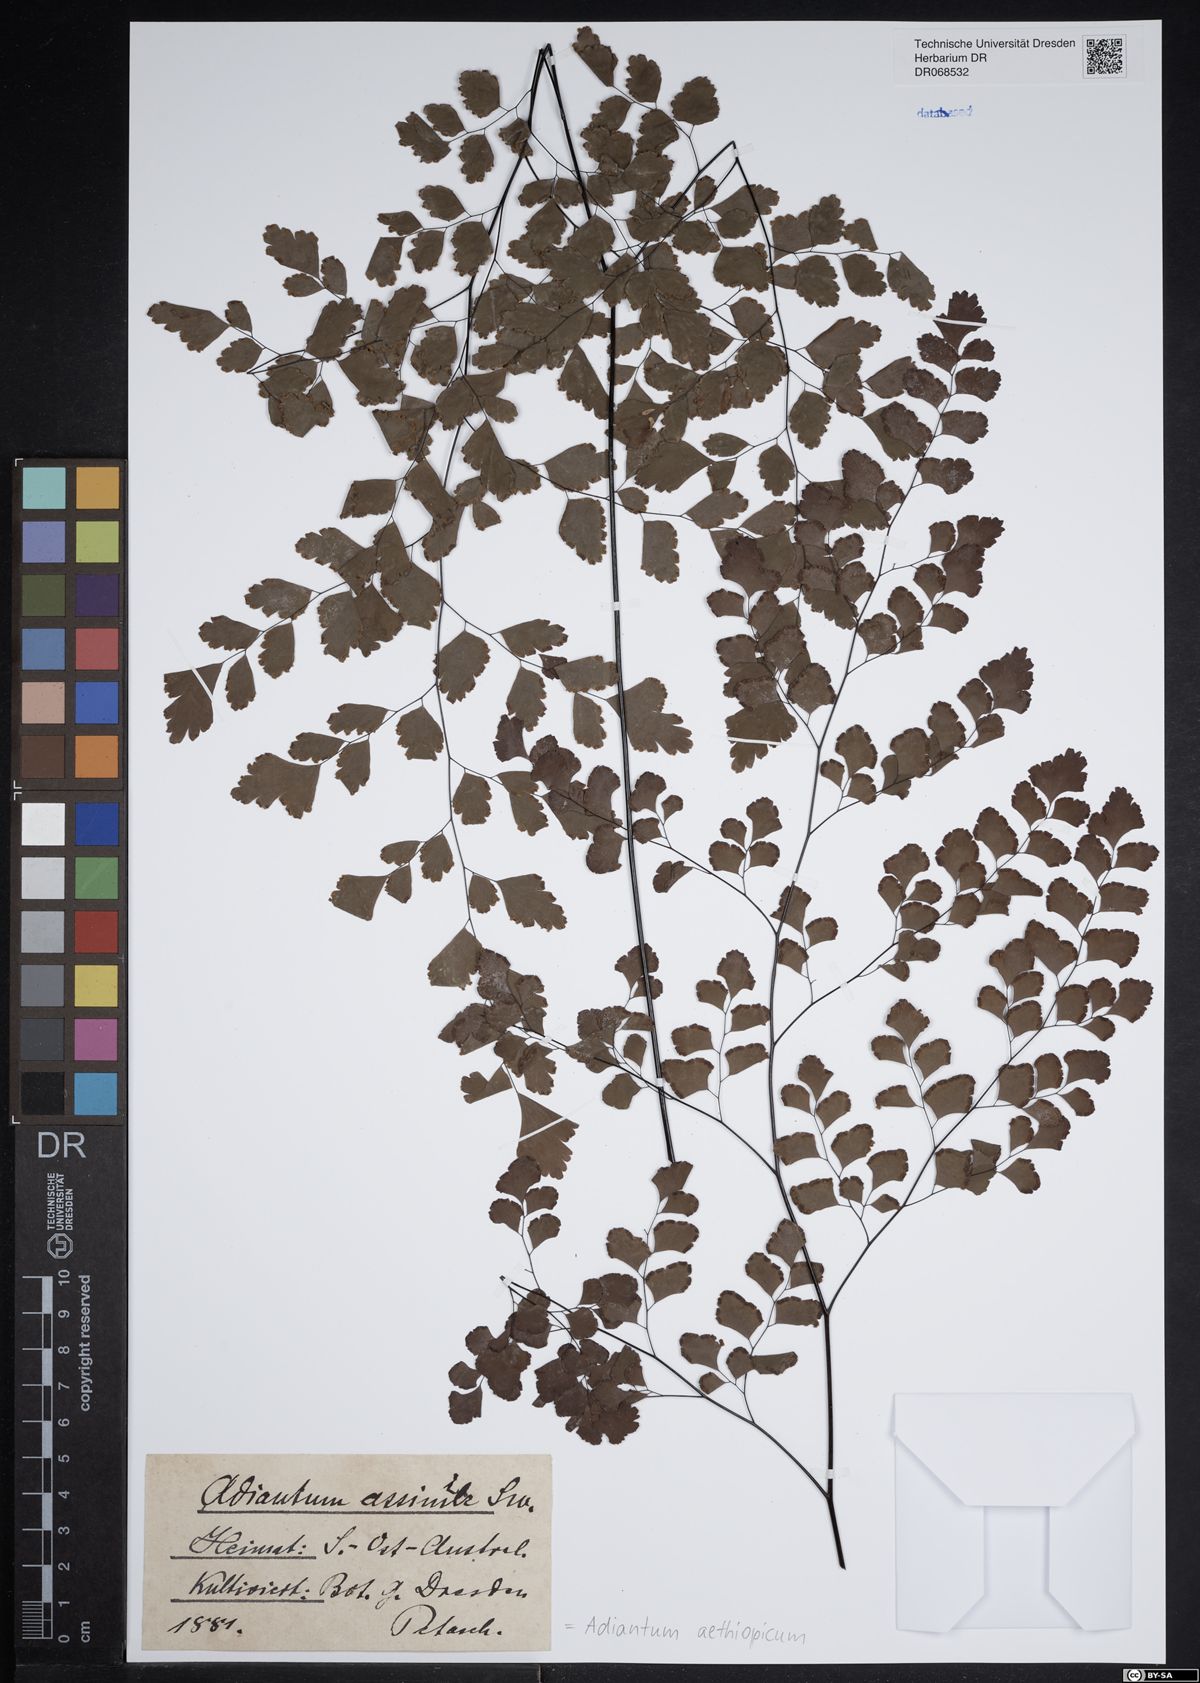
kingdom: Plantae
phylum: Tracheophyta
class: Polypodiopsida
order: Polypodiales
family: Pteridaceae
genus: Adiantum
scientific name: Adiantum aethiopicum
